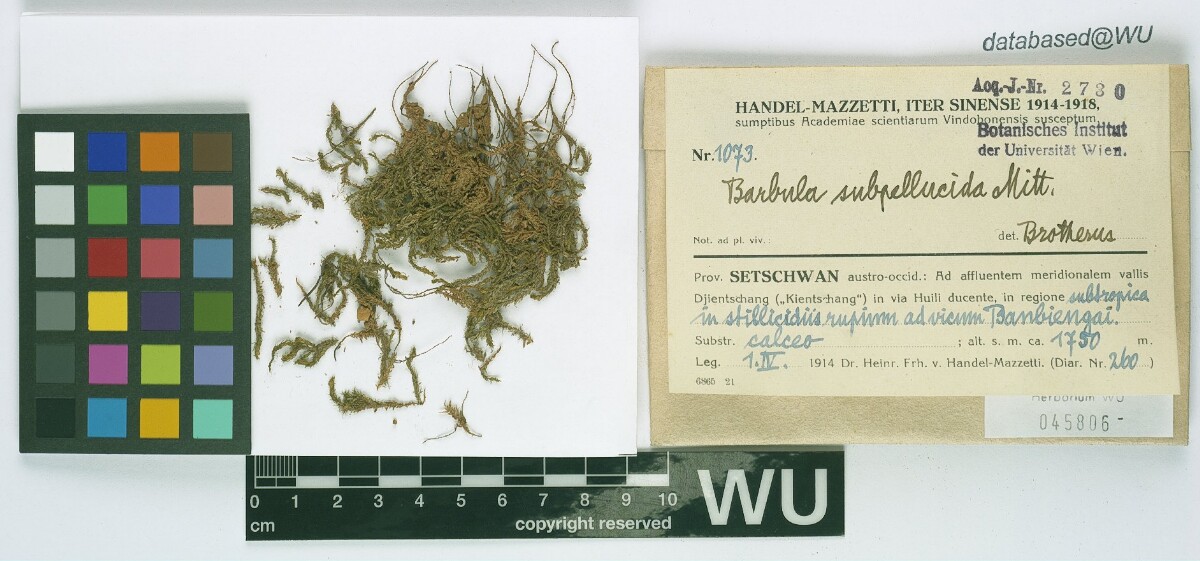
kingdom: Plantae
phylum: Bryophyta
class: Bryopsida
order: Pottiales
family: Pottiaceae
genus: Hydrogonium
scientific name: Hydrogonium subpellucidum
